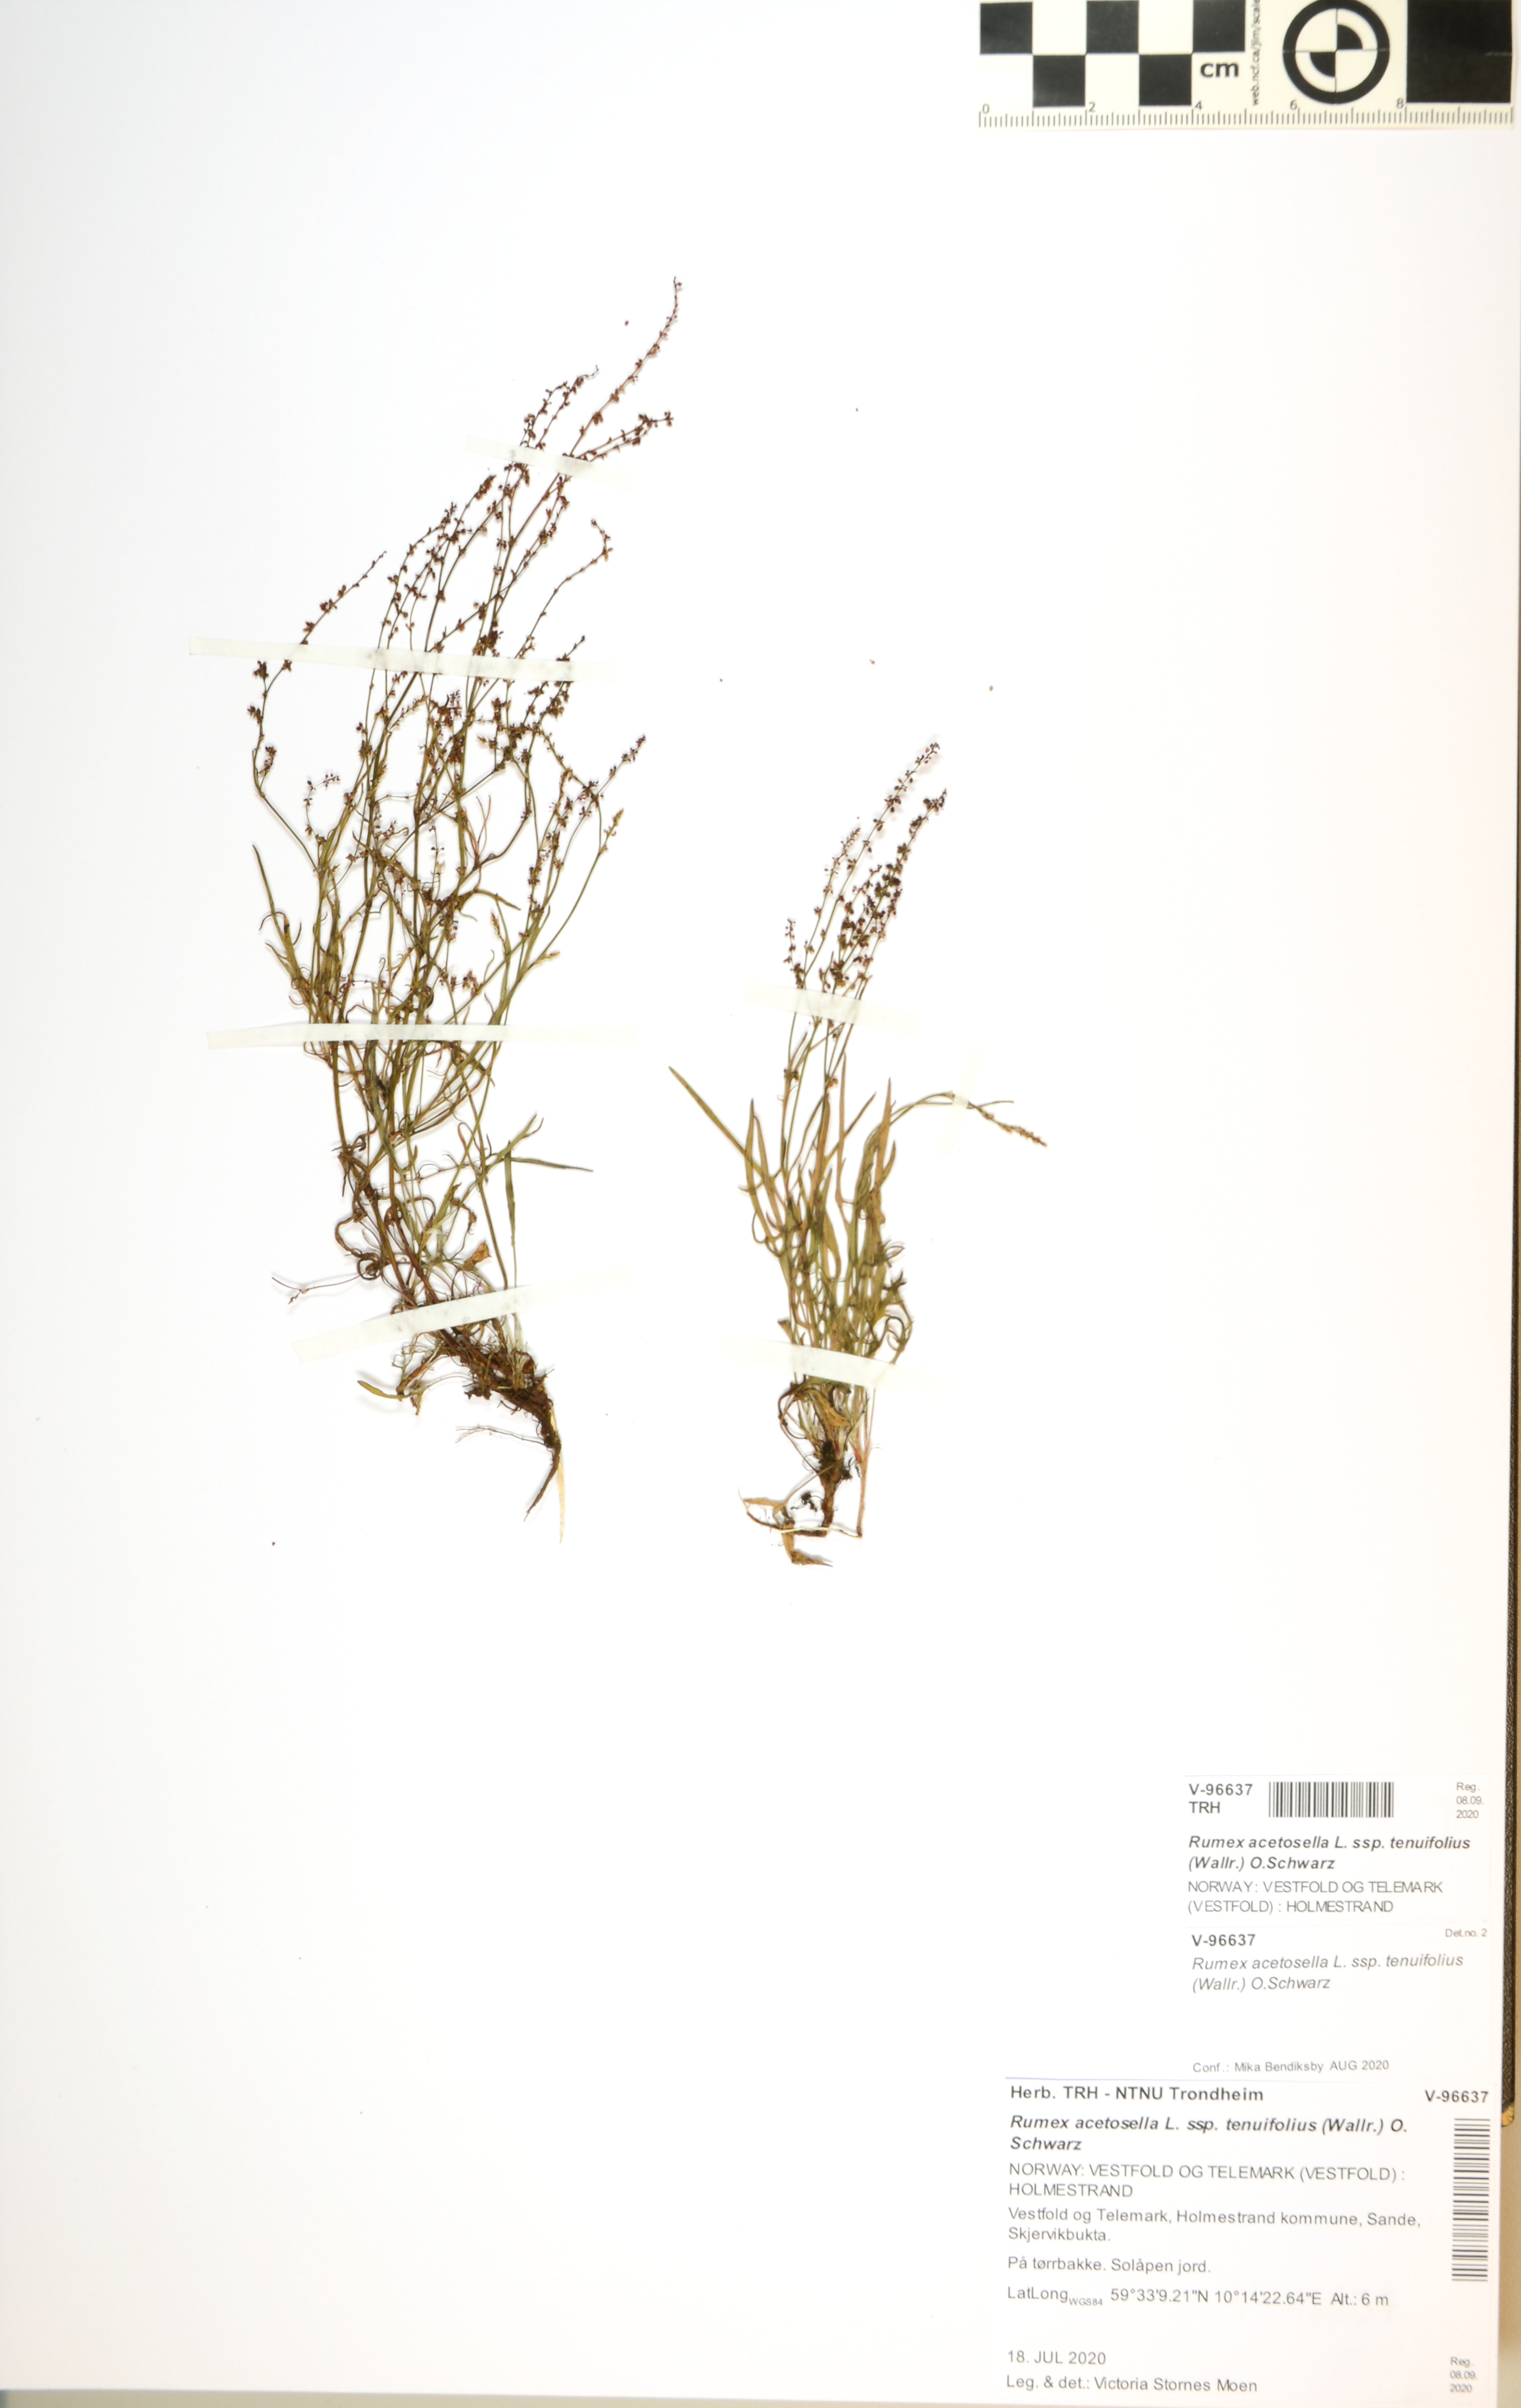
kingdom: Plantae
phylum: Tracheophyta
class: Magnoliopsida
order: Caryophyllales
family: Polygonaceae
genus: Rumex
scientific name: Rumex acetosella
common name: Common sheep sorrel
